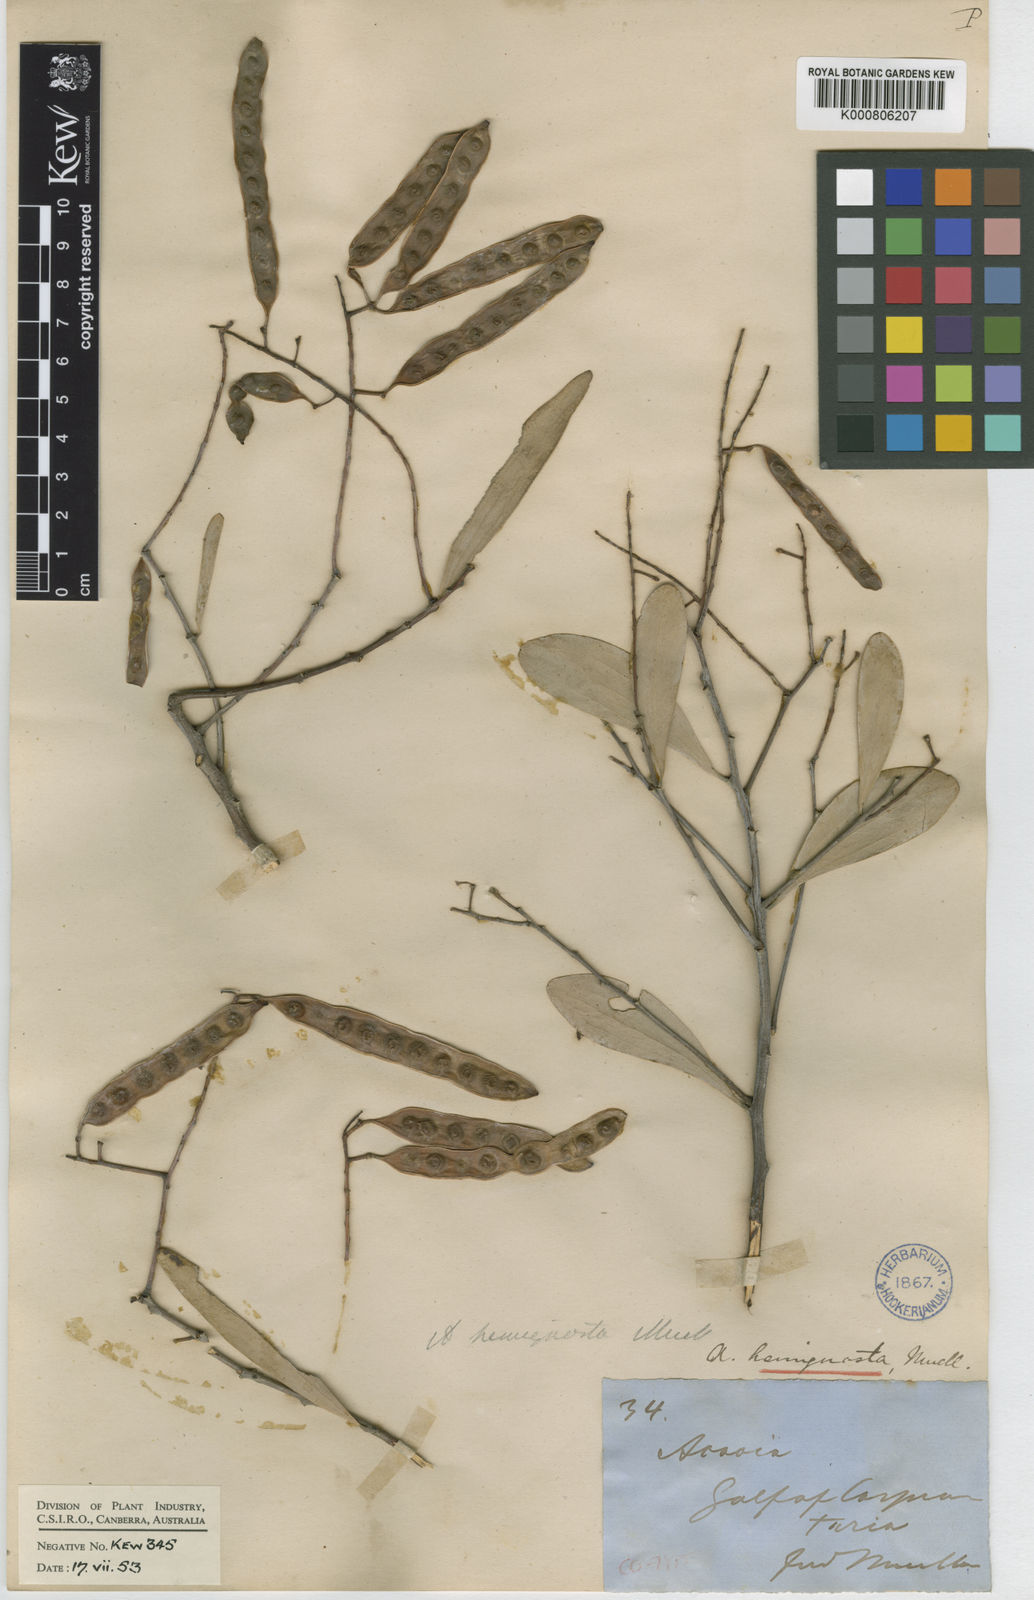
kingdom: Plantae
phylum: Tracheophyta
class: Magnoliopsida
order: Fabales
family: Fabaceae
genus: Acacia
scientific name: Acacia hemignosta
